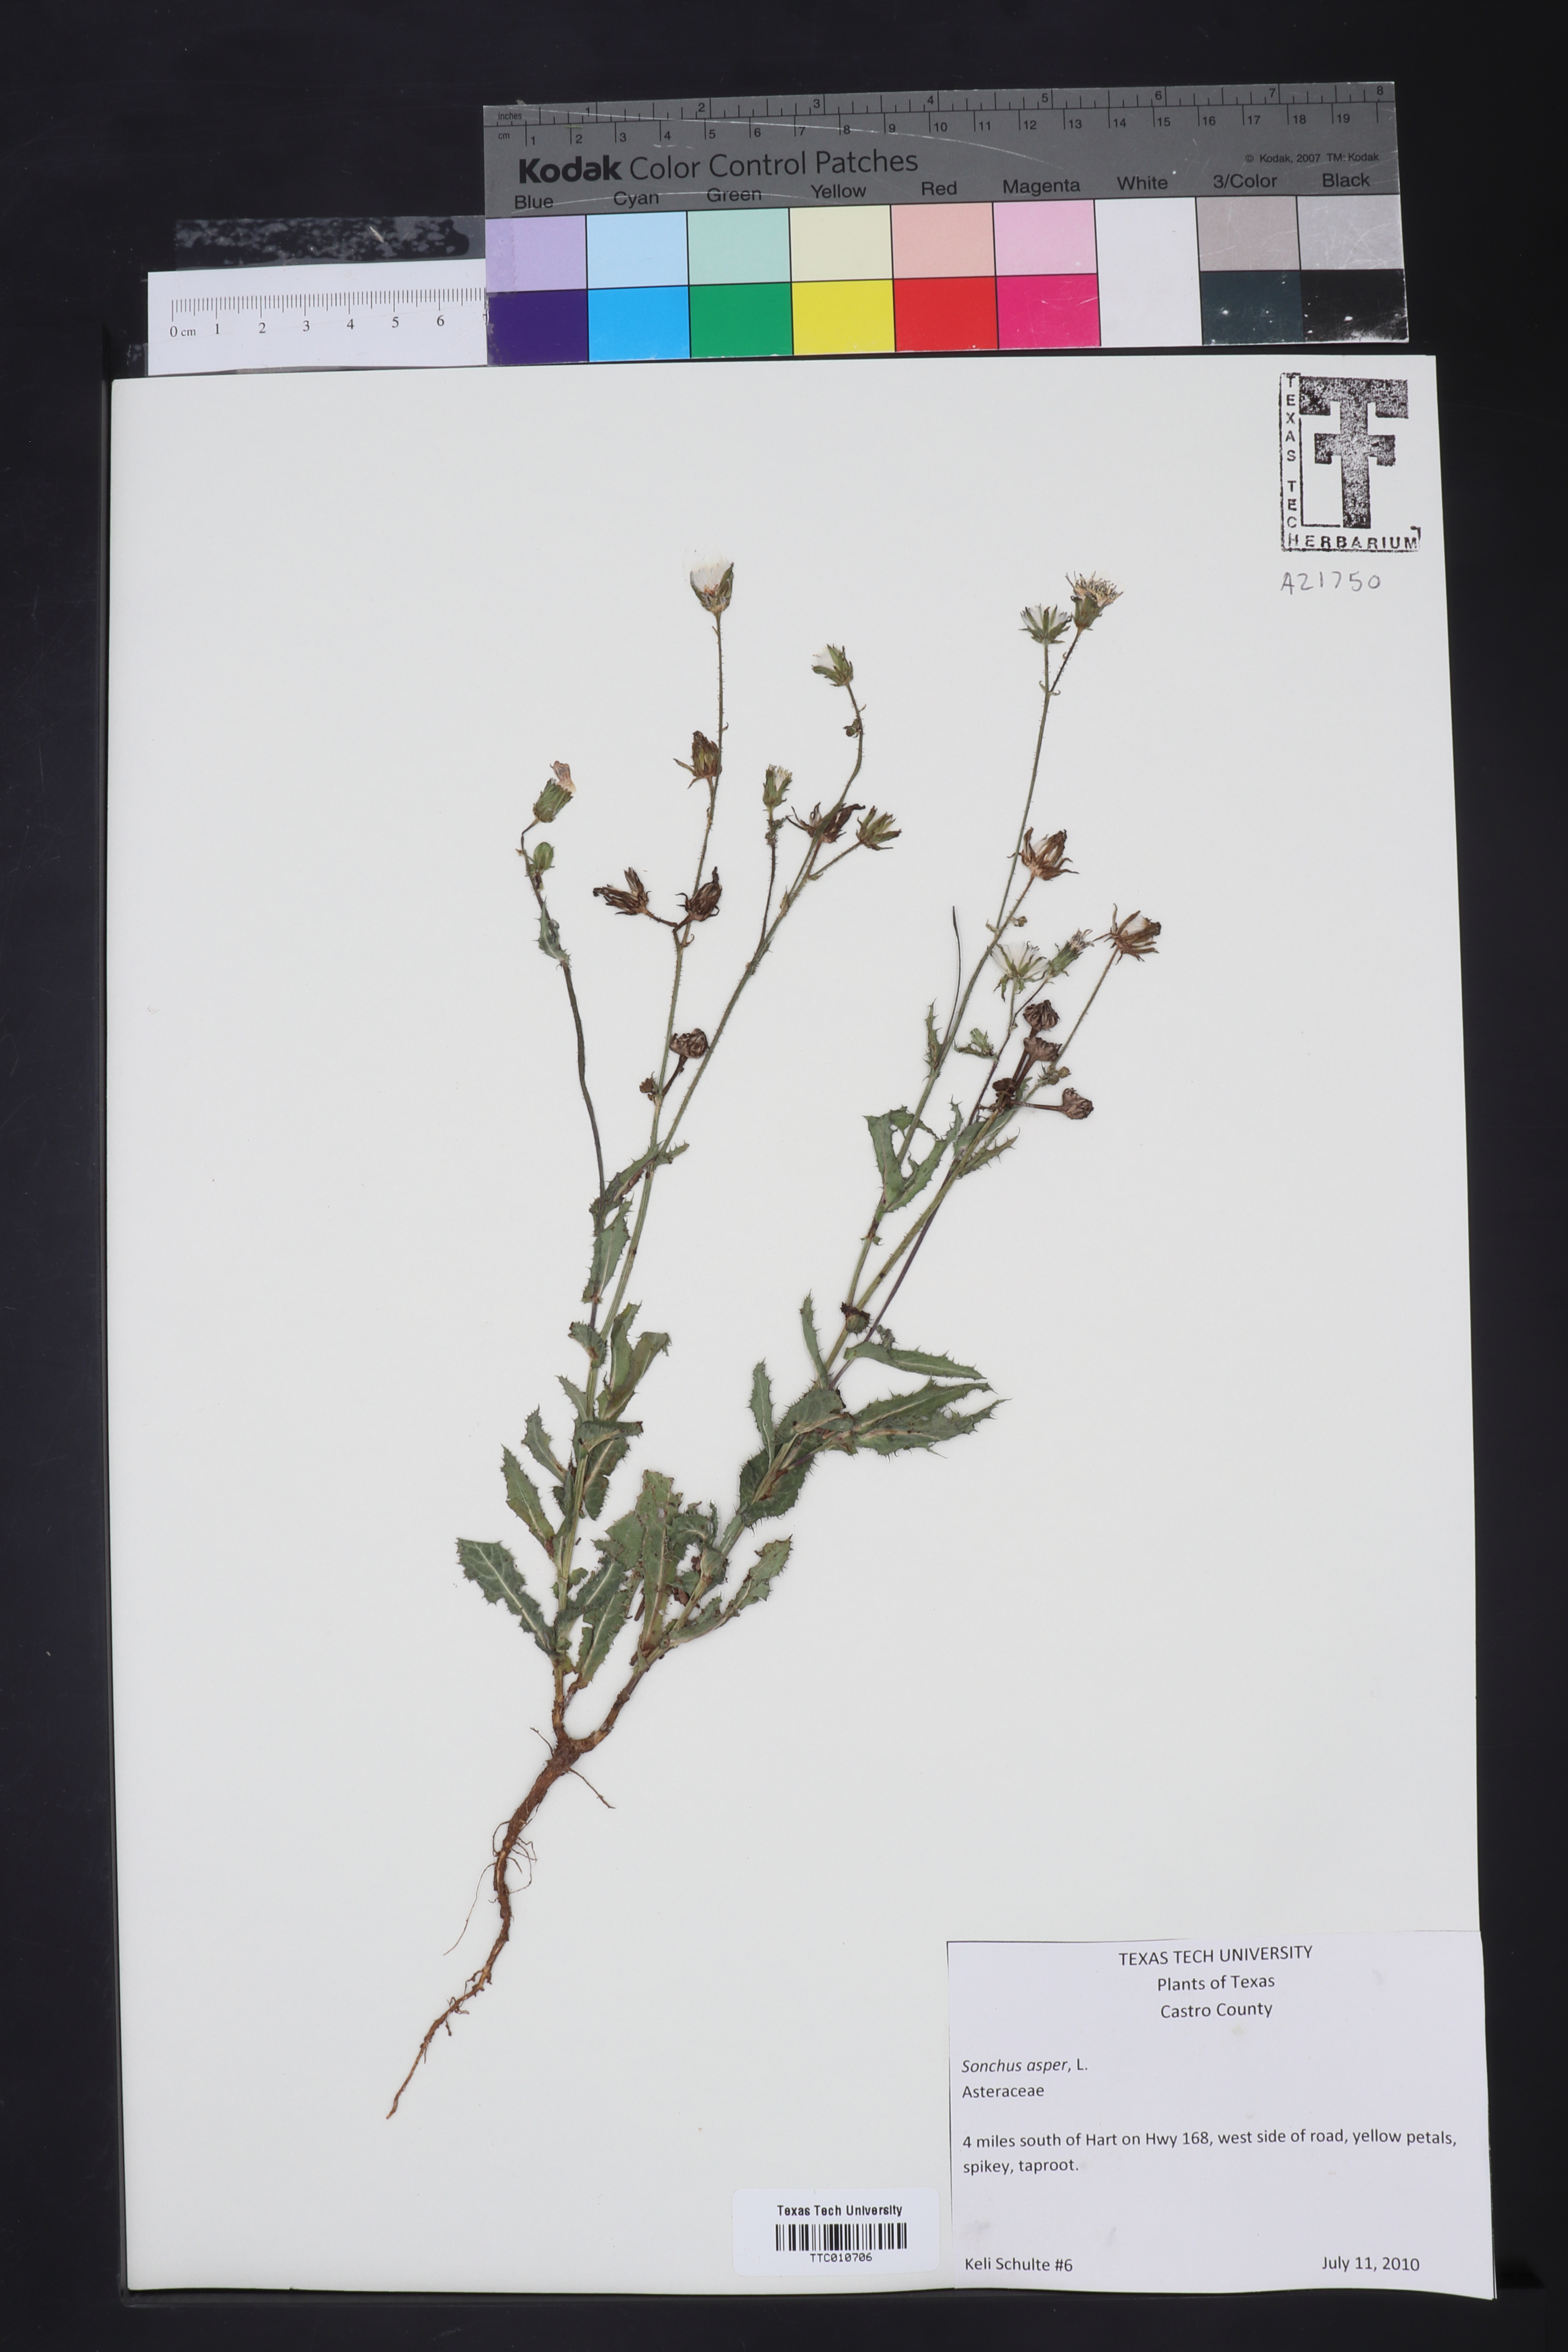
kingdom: Plantae
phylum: Tracheophyta
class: Magnoliopsida
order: Asterales
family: Asteraceae
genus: Sonchus
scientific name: Sonchus asper
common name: Prickly sow-thistle
